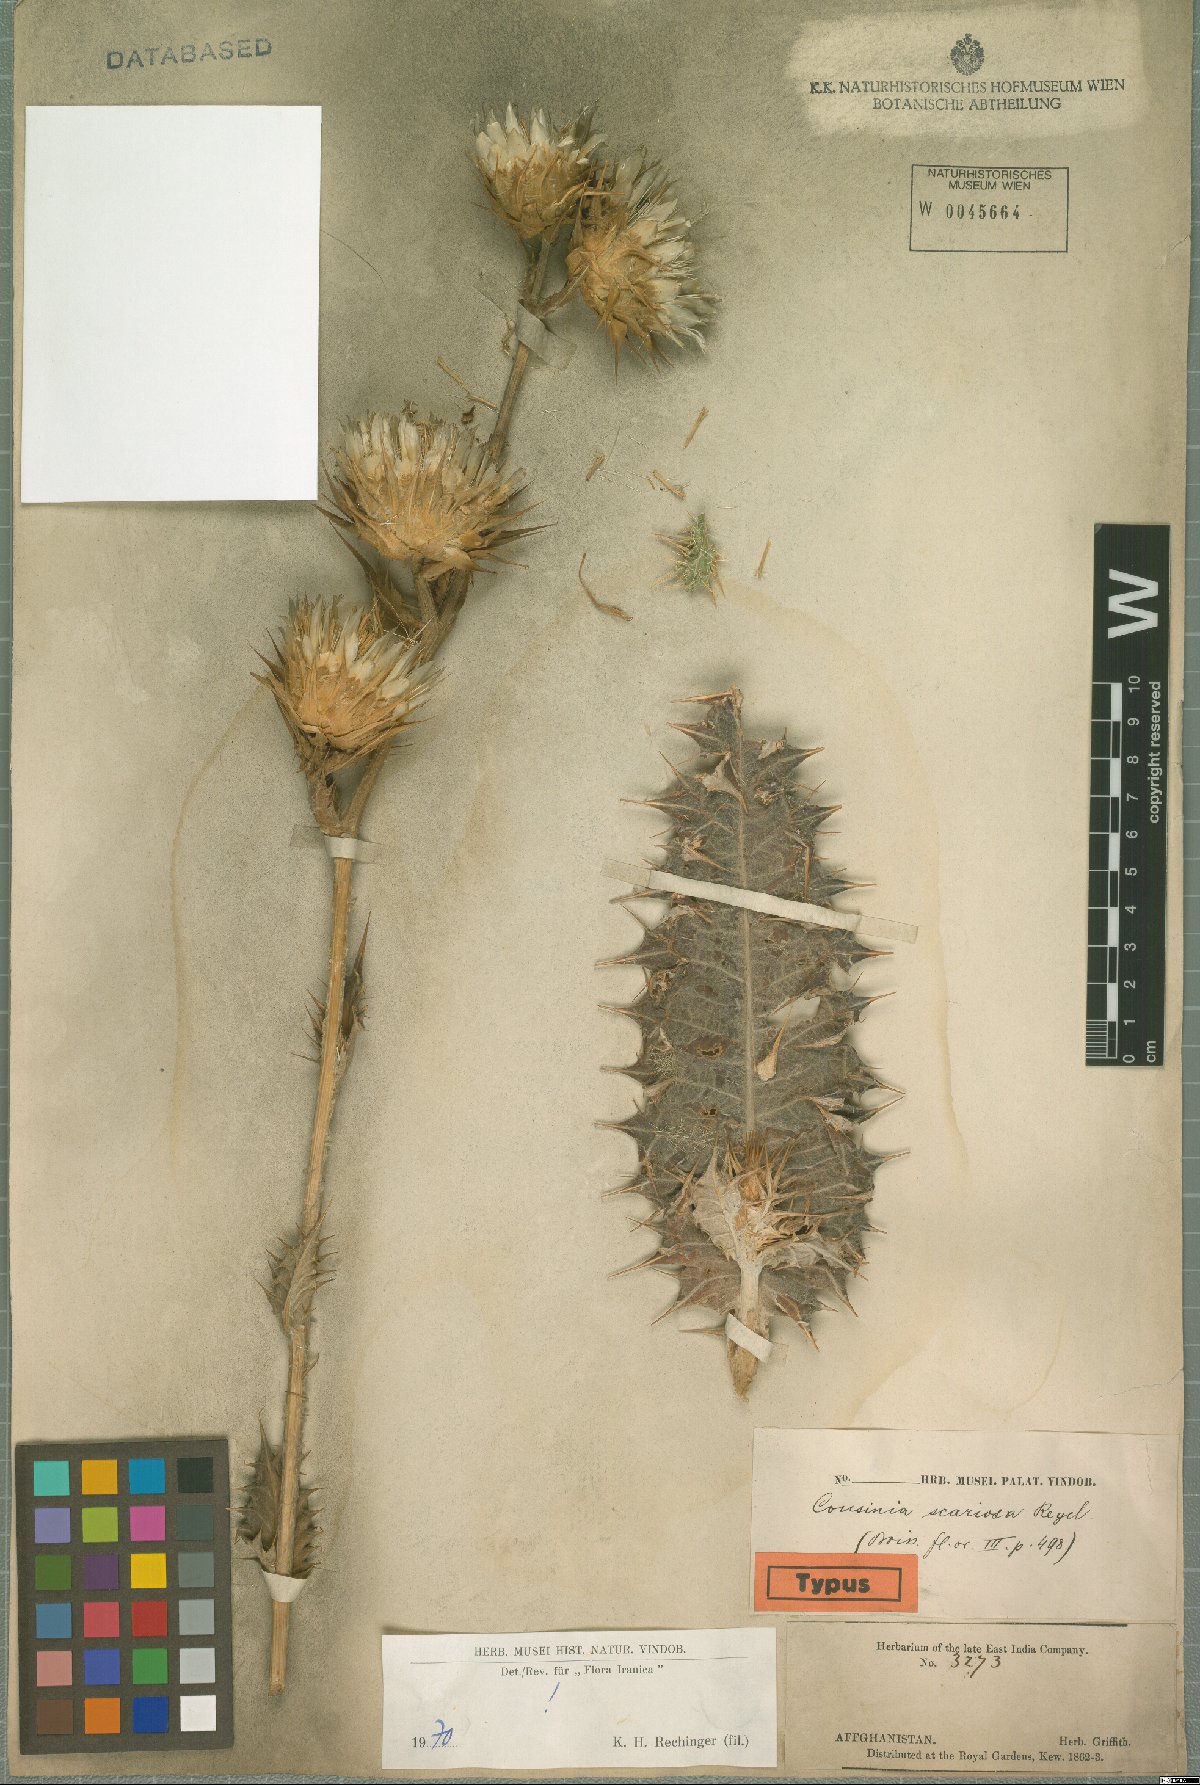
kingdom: Plantae
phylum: Tracheophyta
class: Magnoliopsida
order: Asterales
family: Asteraceae
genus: Cousinia
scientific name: Cousinia scariosa
